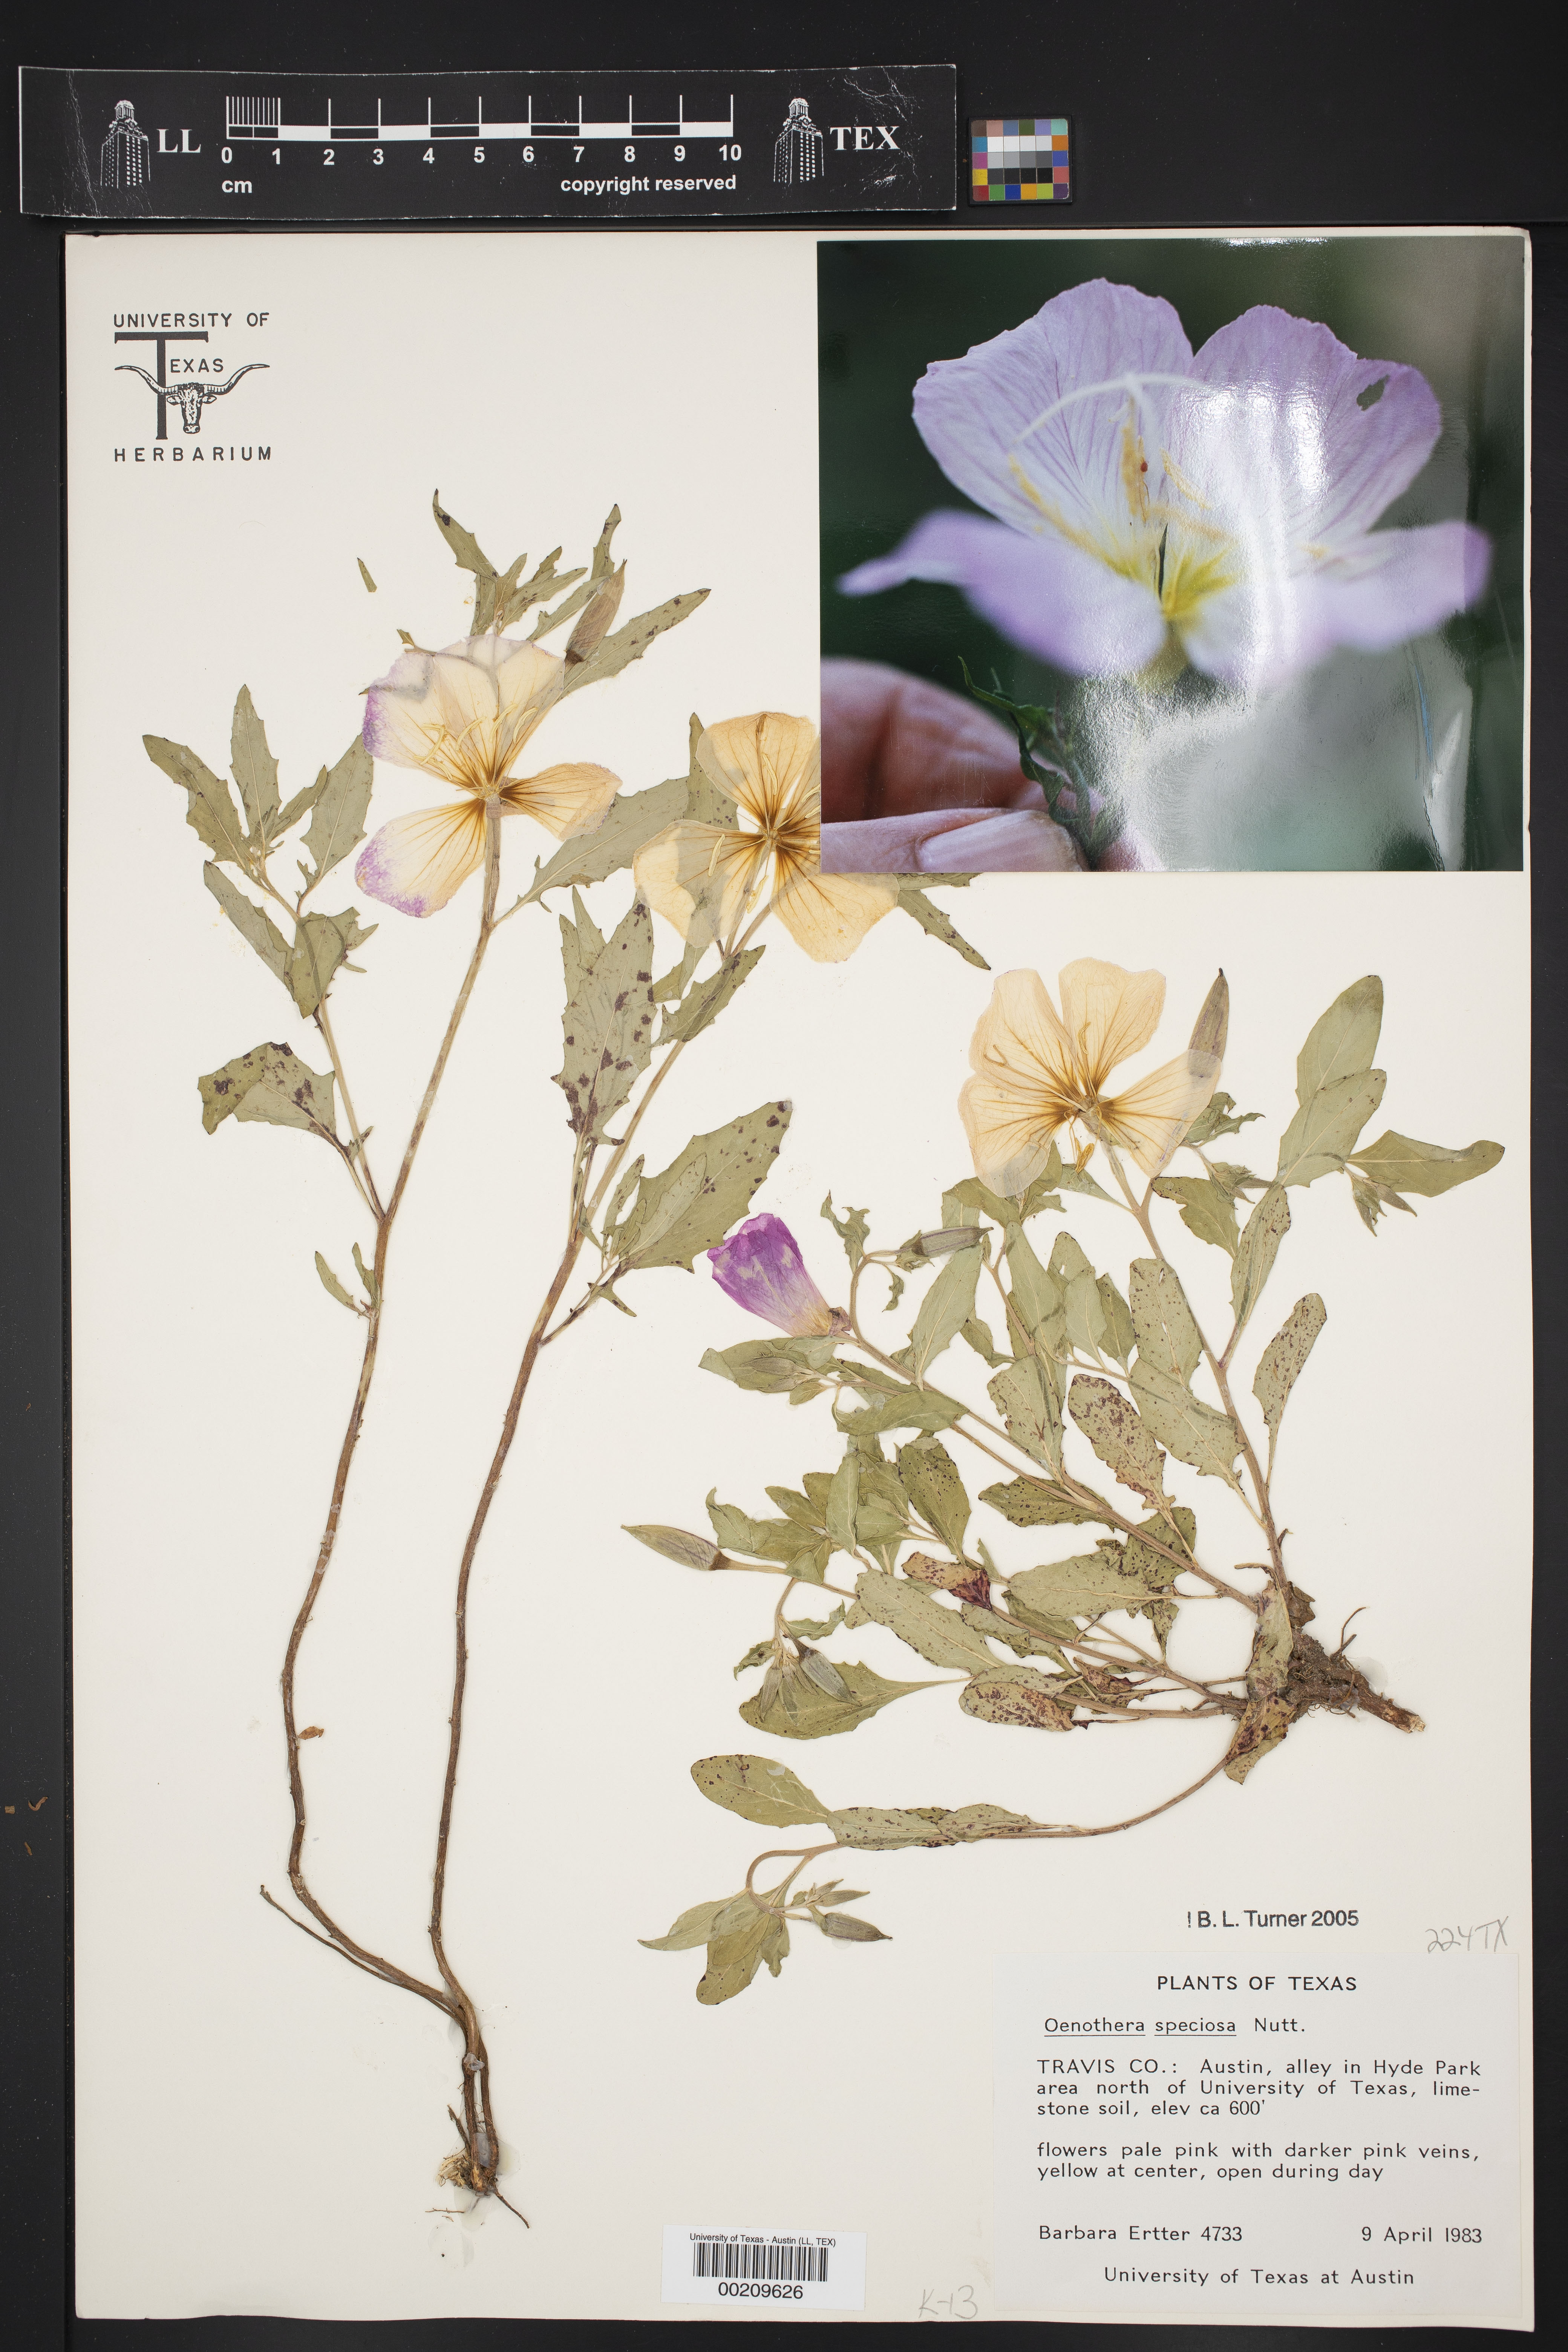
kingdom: Plantae
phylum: Tracheophyta
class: Magnoliopsida
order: Myrtales
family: Onagraceae
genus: Oenothera
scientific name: Oenothera speciosa
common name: White evening-primrose
